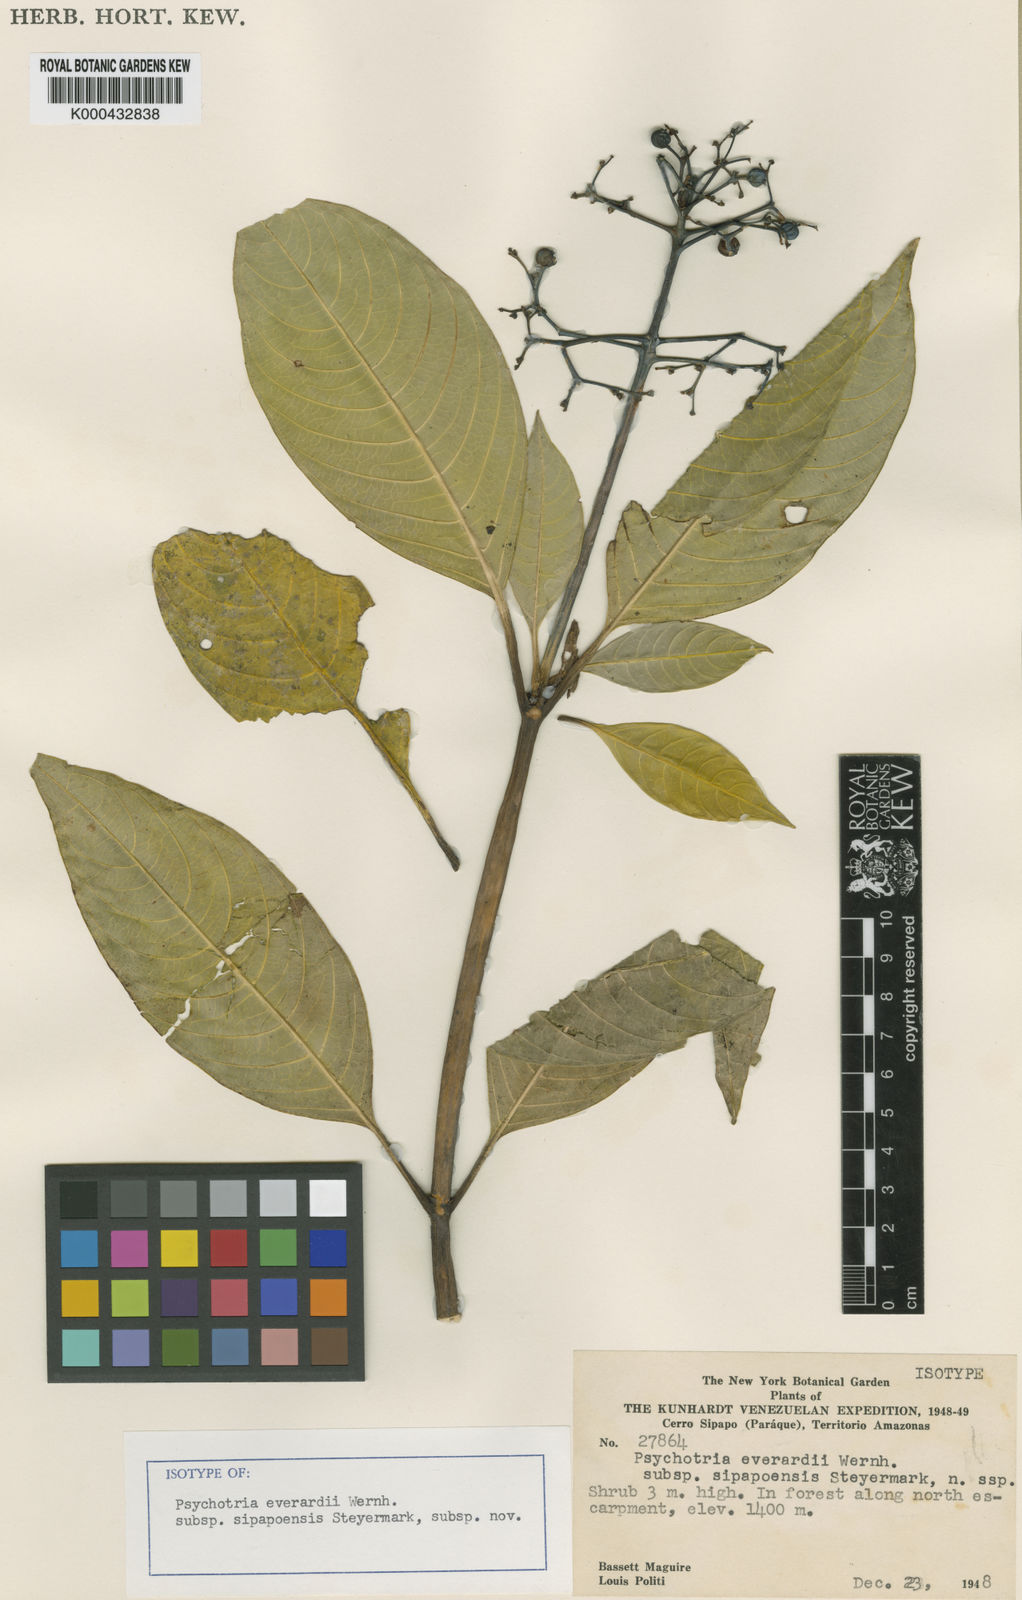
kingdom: Plantae
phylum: Tracheophyta
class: Magnoliopsida
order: Gentianales
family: Rubiaceae
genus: Palicourea
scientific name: Palicourea duricoria
